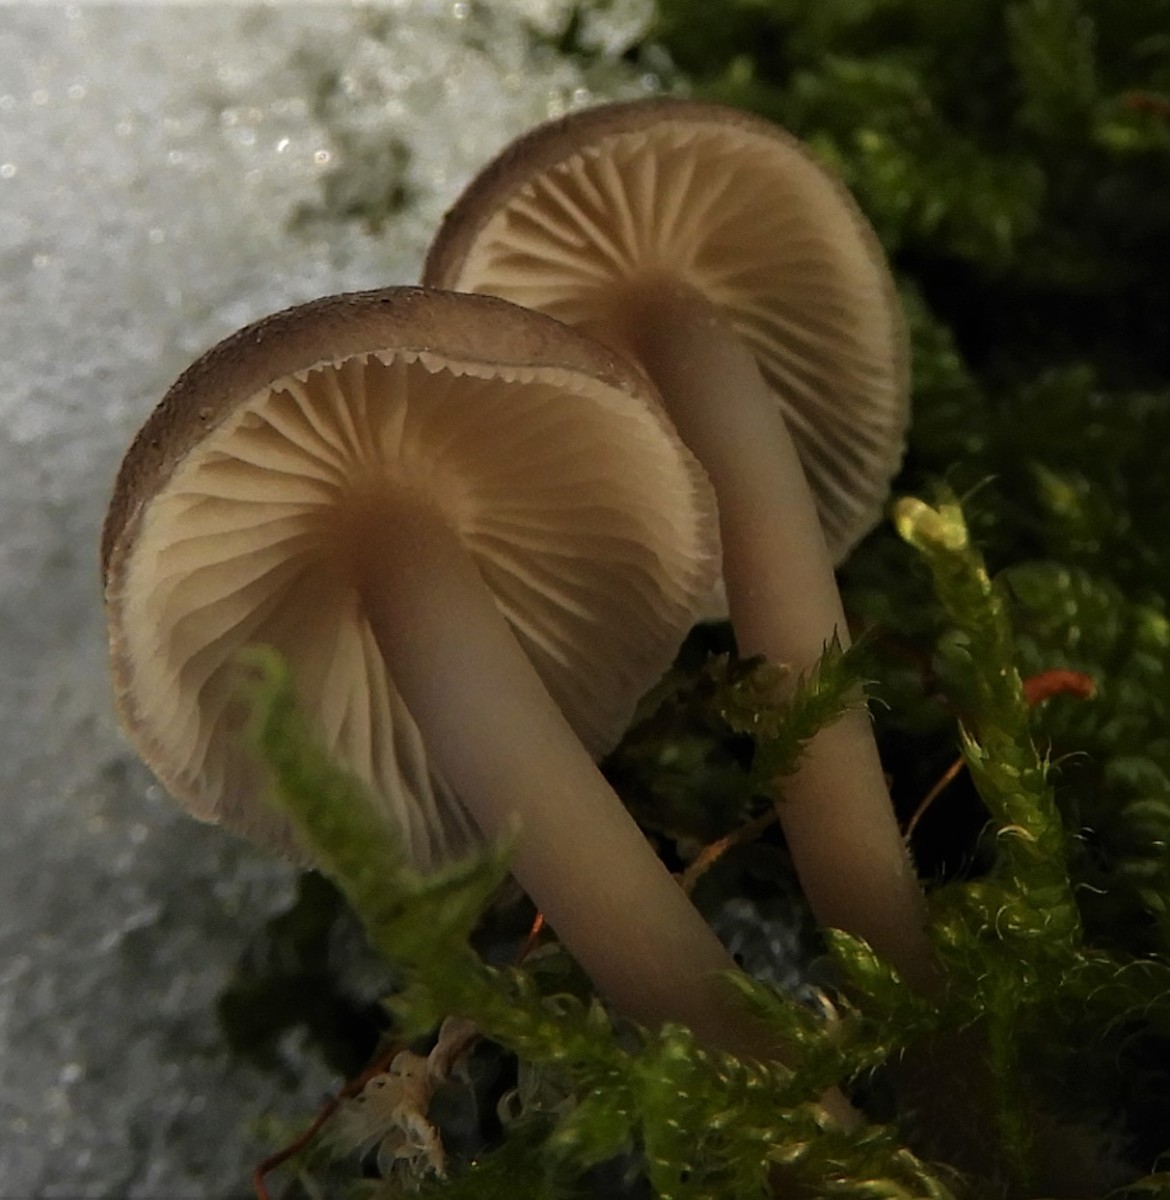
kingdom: Fungi
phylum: Basidiomycota
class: Agaricomycetes
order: Agaricales
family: Mycenaceae
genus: Mycena
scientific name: Mycena tintinnabulum
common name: vinter-huesvamp
